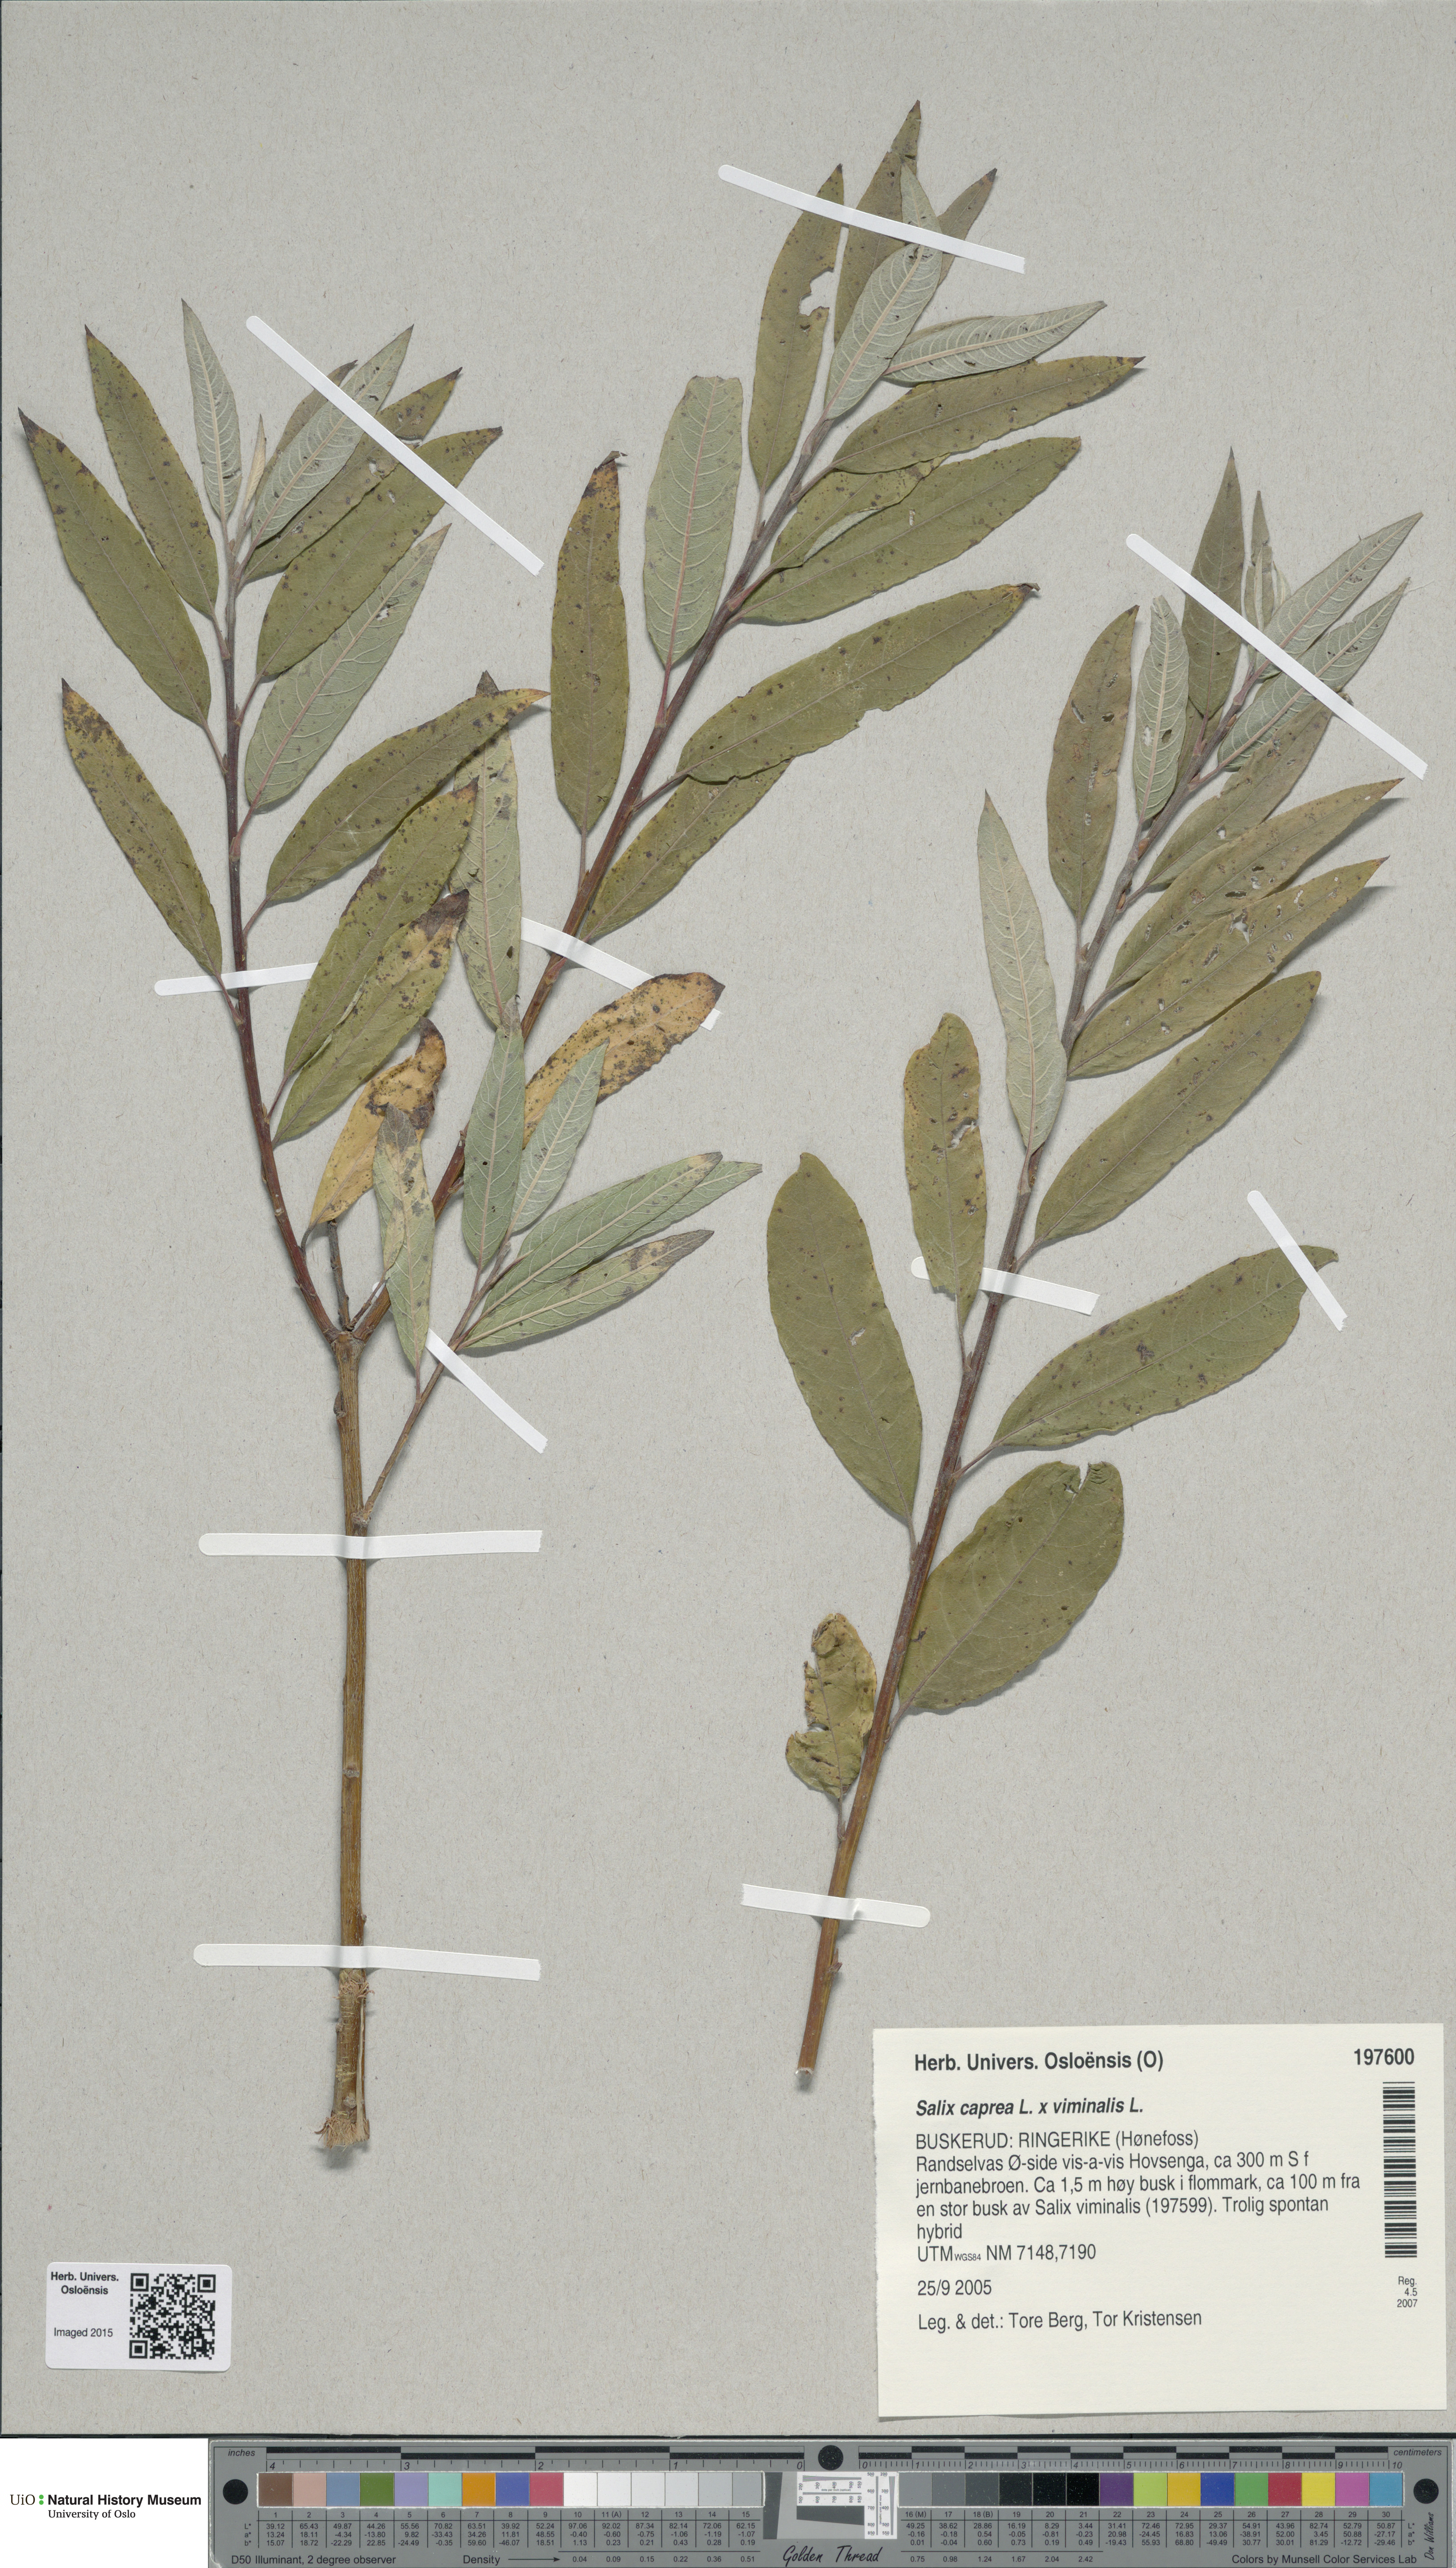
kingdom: Plantae
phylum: Tracheophyta
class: Magnoliopsida
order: Malpighiales
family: Salicaceae
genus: Salix
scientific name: Salix
